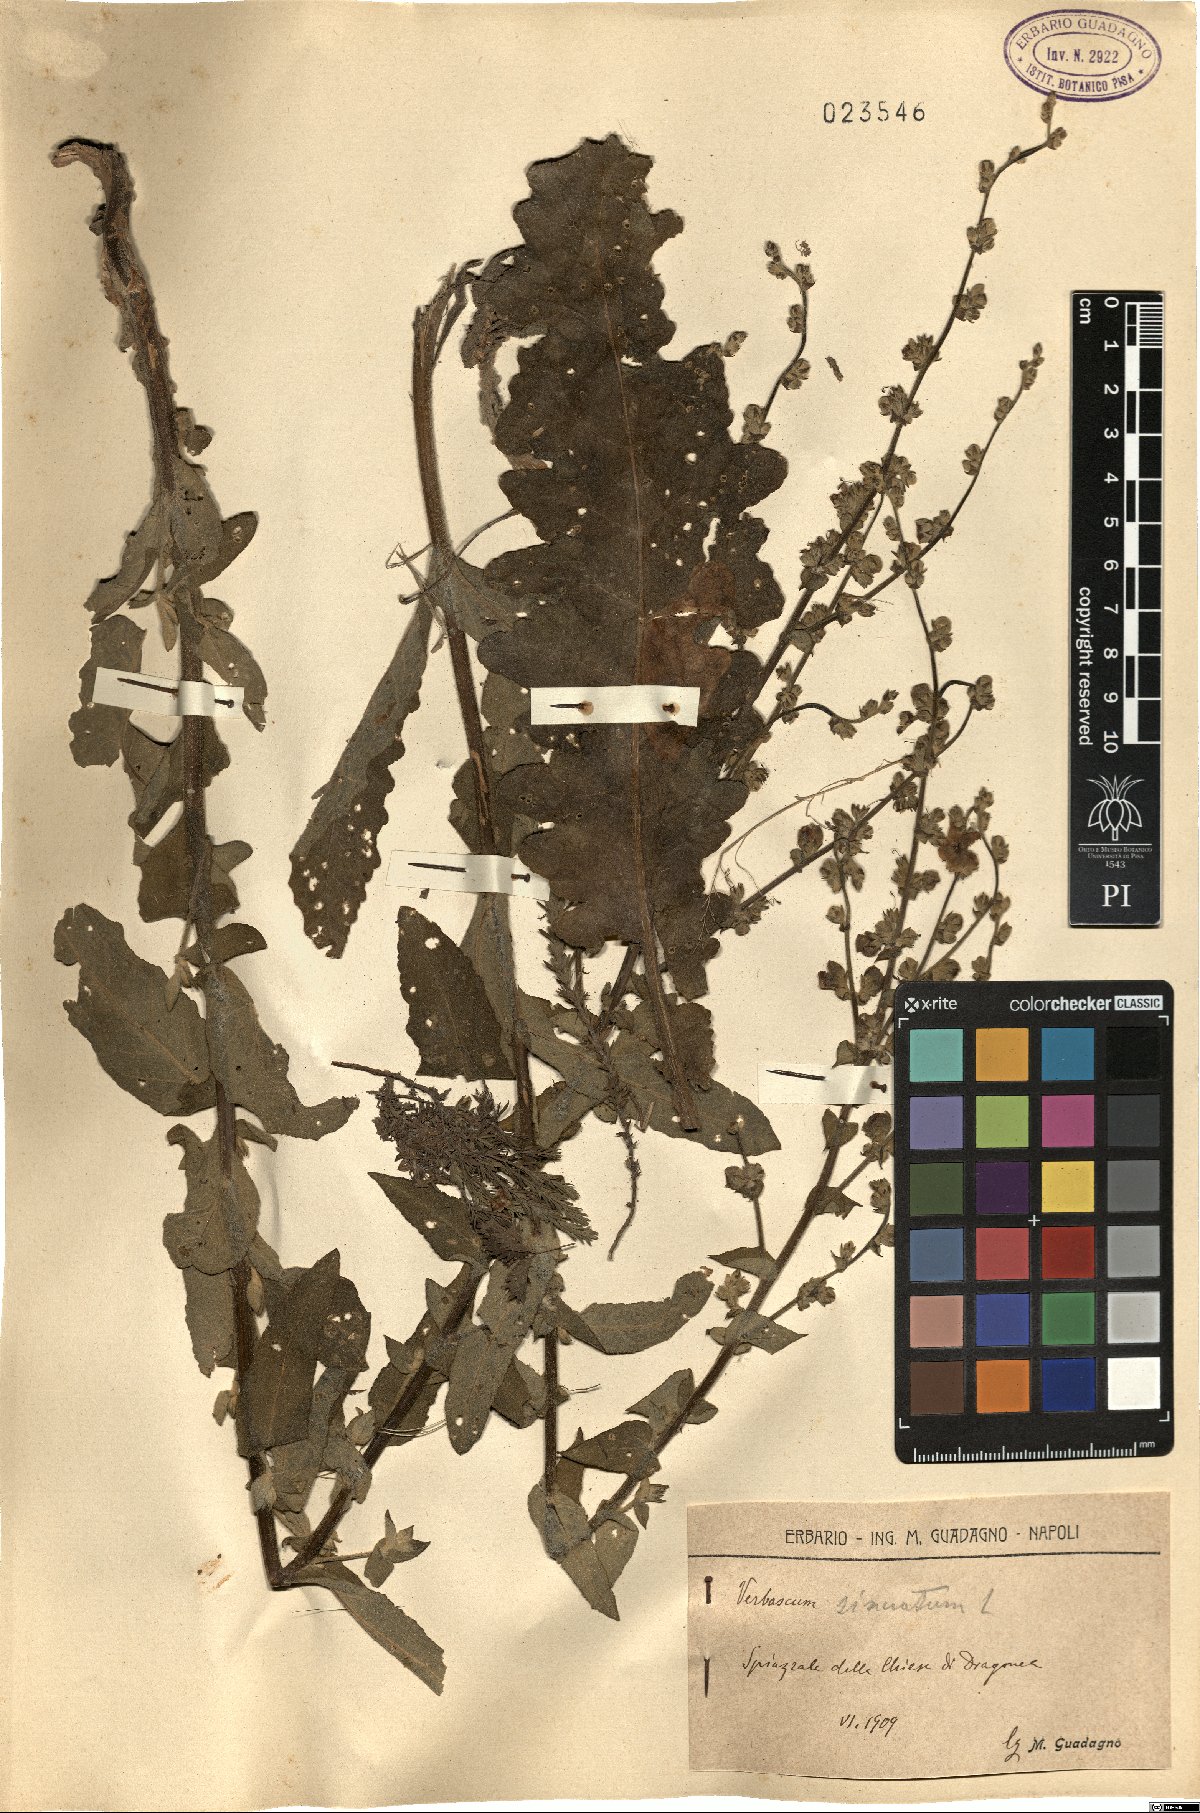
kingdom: Plantae
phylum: Tracheophyta
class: Magnoliopsida
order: Lamiales
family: Scrophulariaceae
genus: Verbascum
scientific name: Verbascum sinuatum
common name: Wavyleaf mullein
